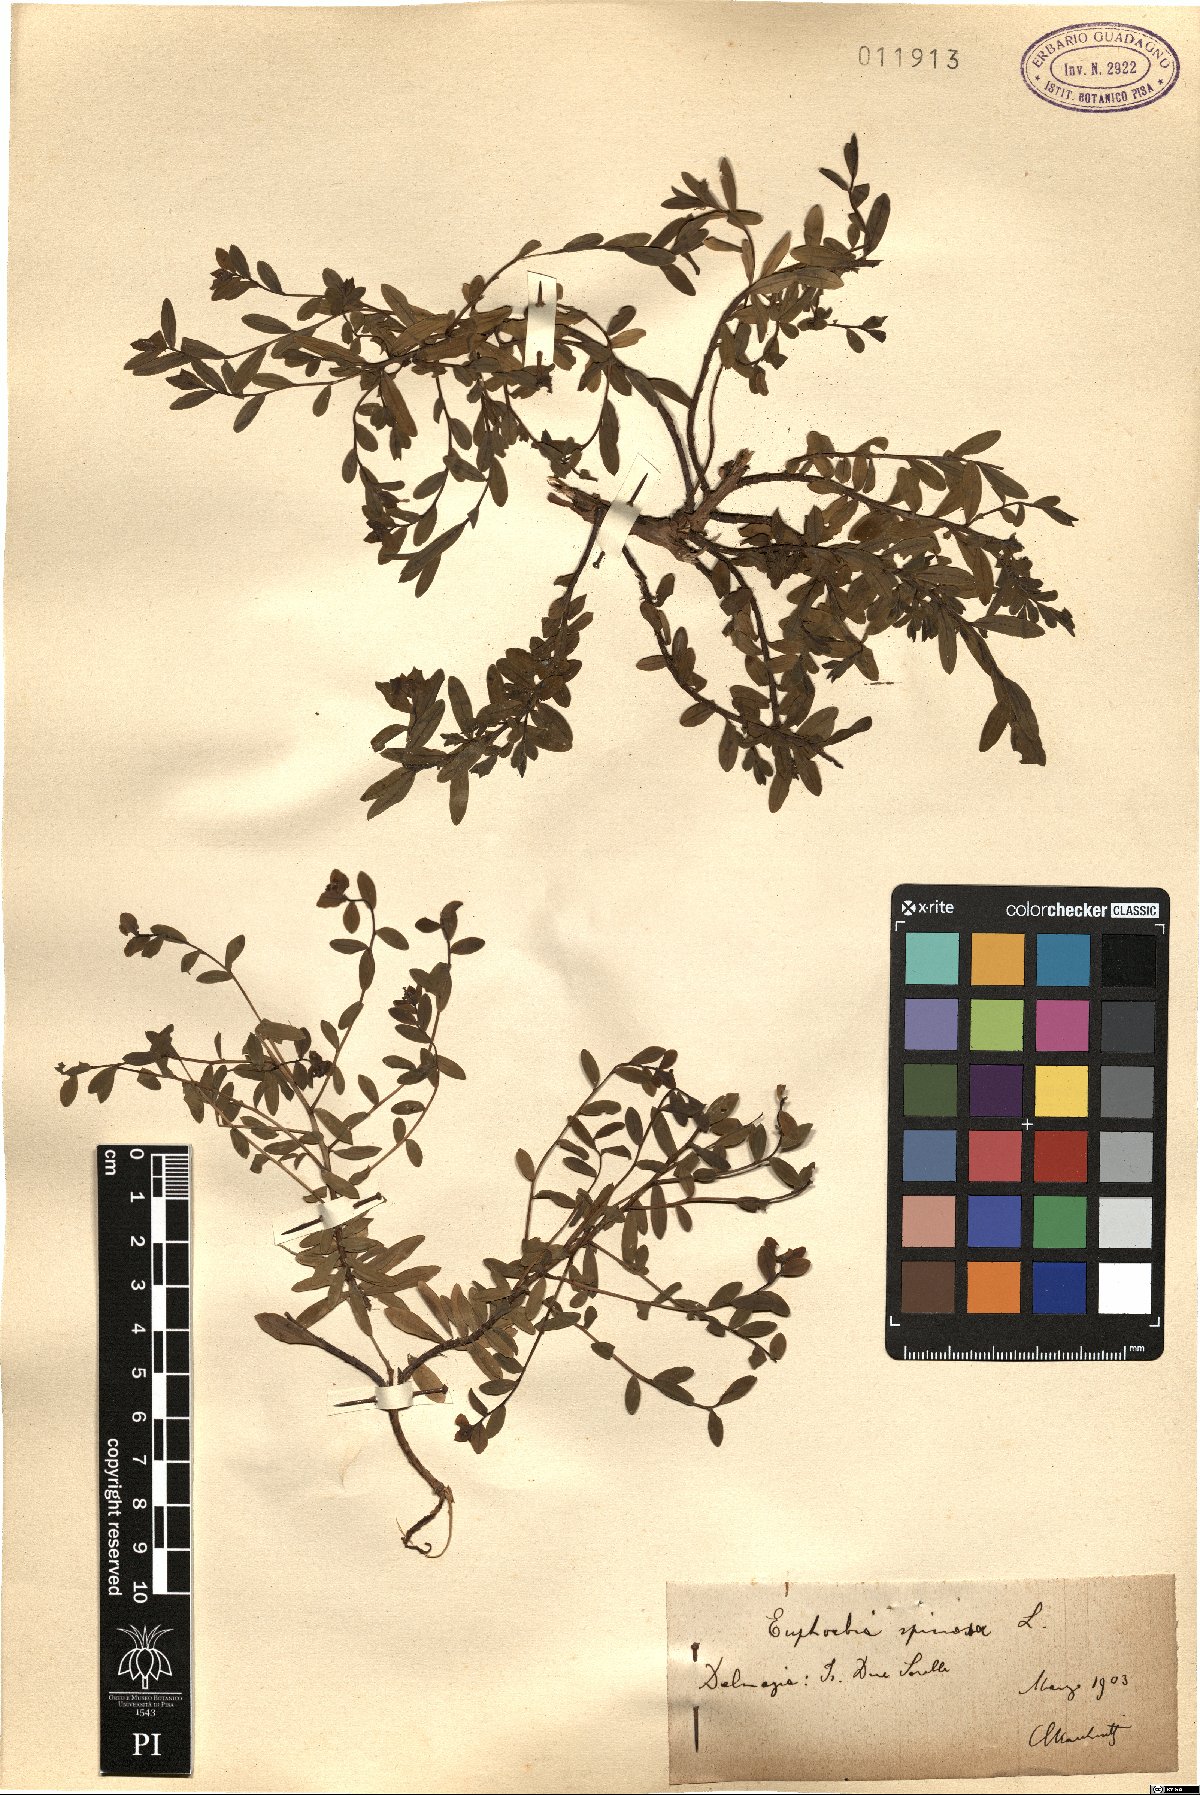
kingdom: Plantae
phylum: Tracheophyta
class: Magnoliopsida
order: Malpighiales
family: Euphorbiaceae
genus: Euphorbia
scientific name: Euphorbia spinosa
